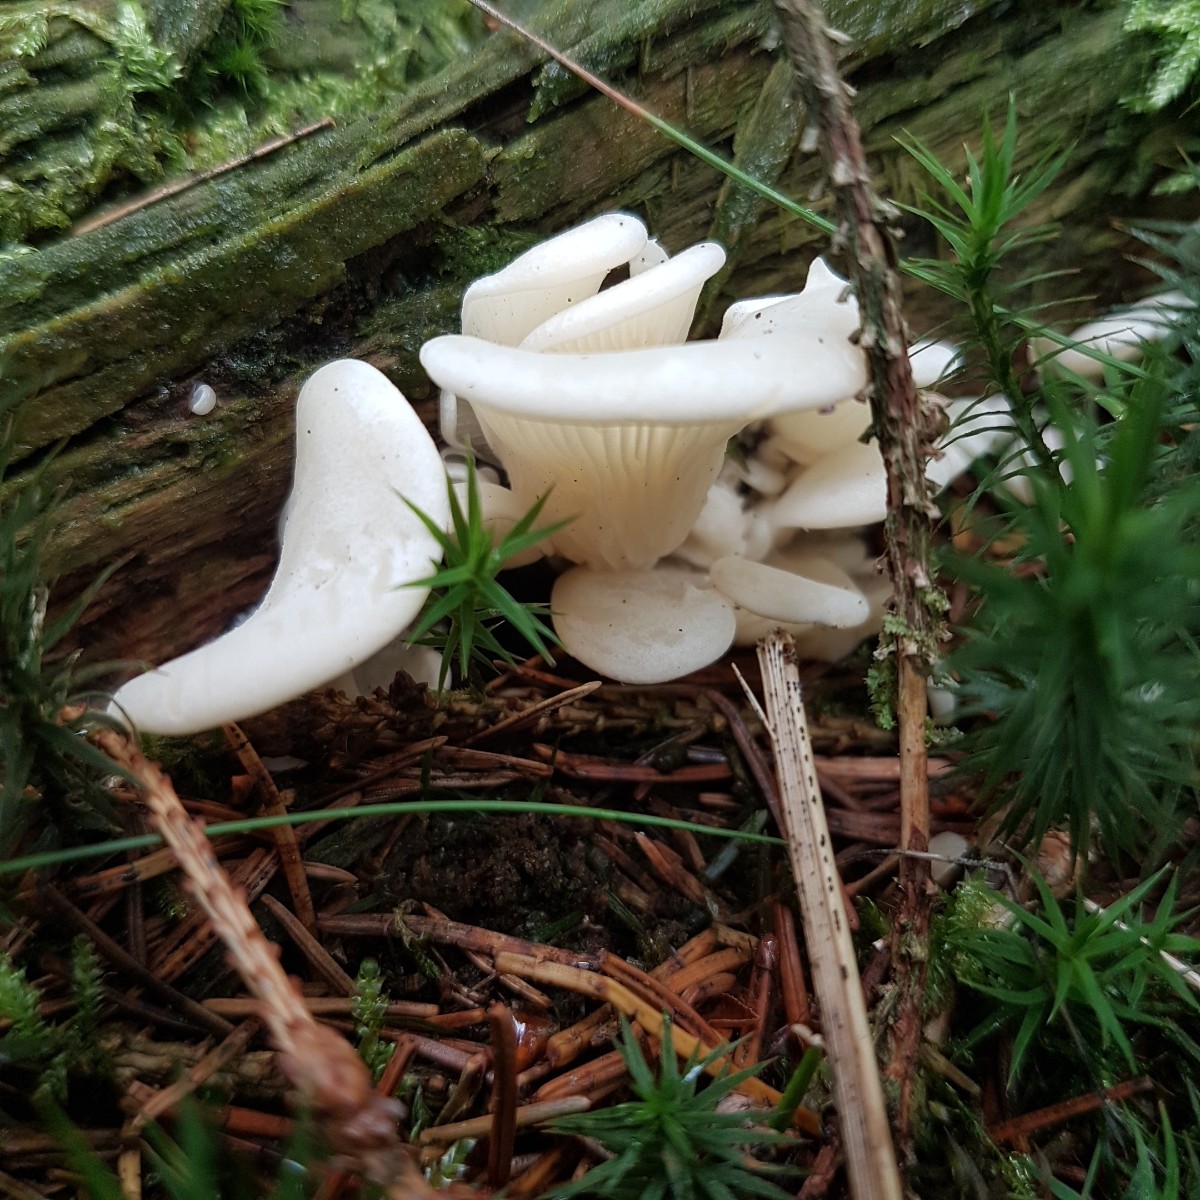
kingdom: Fungi
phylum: Basidiomycota
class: Agaricomycetes
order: Agaricales
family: Marasmiaceae
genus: Pleurocybella
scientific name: Pleurocybella porrigens
